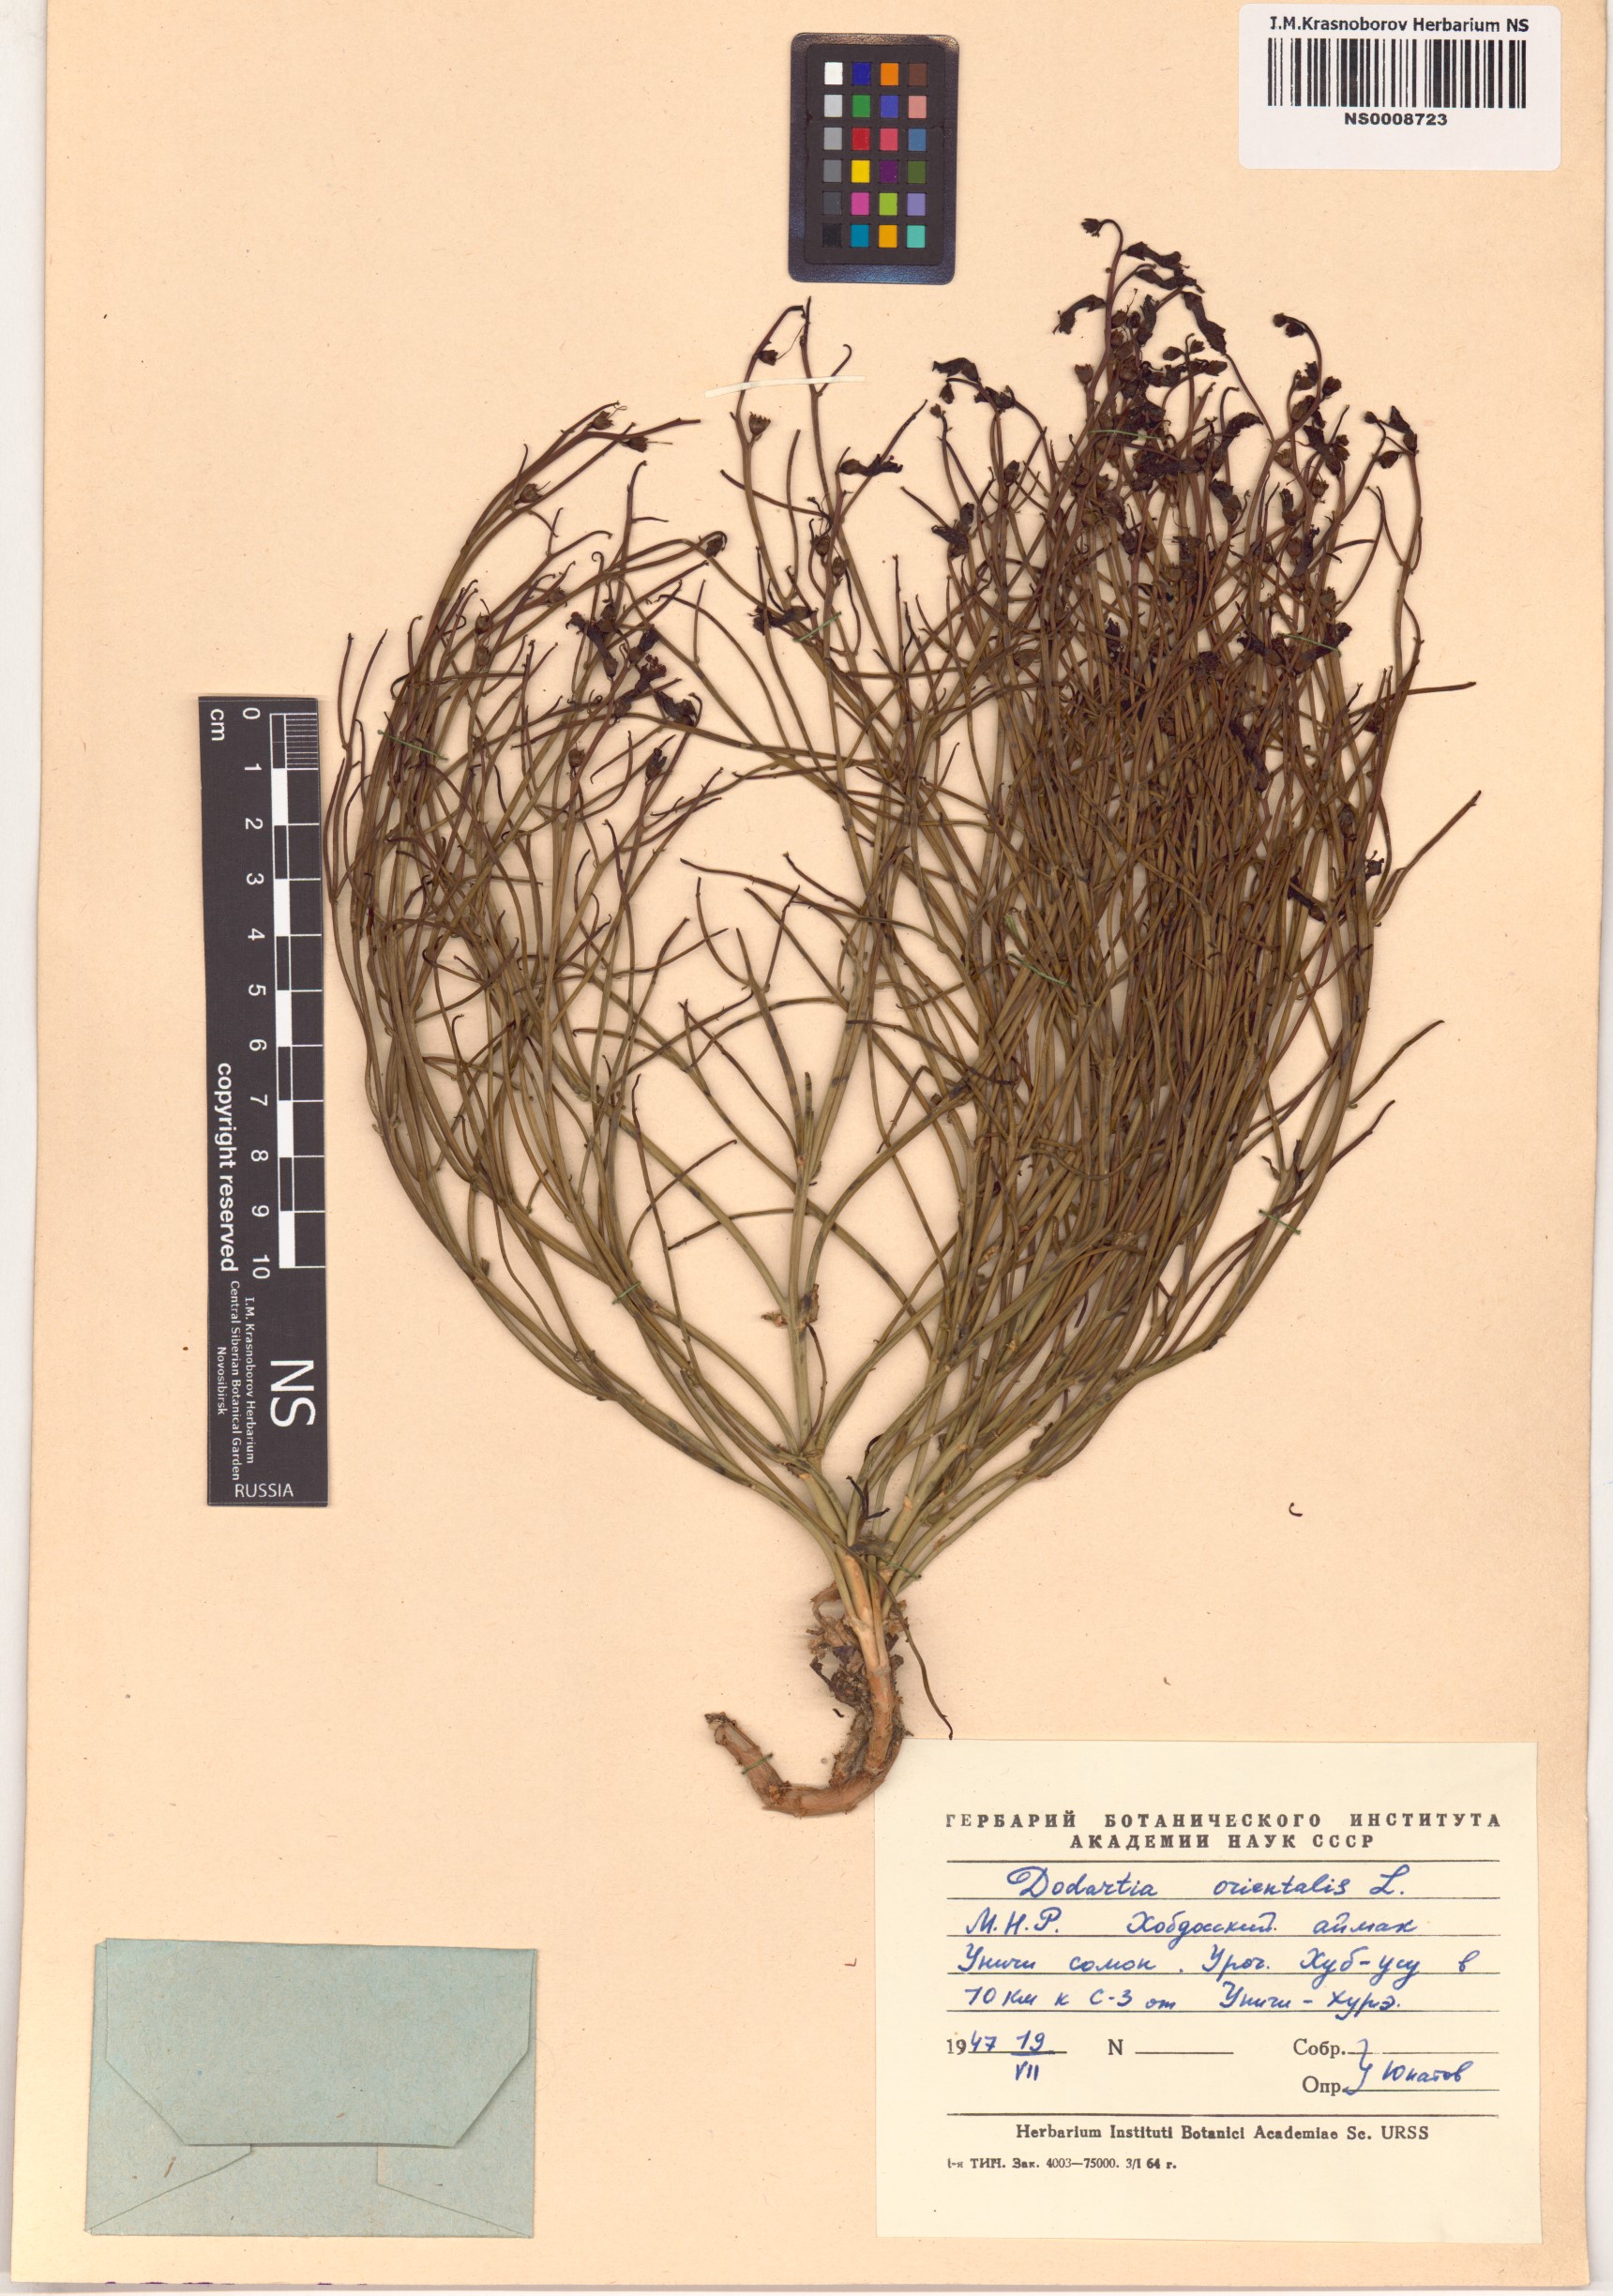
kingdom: Plantae
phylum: Tracheophyta
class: Magnoliopsida
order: Lamiales
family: Mazaceae
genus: Dodartia
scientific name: Dodartia orientalis
